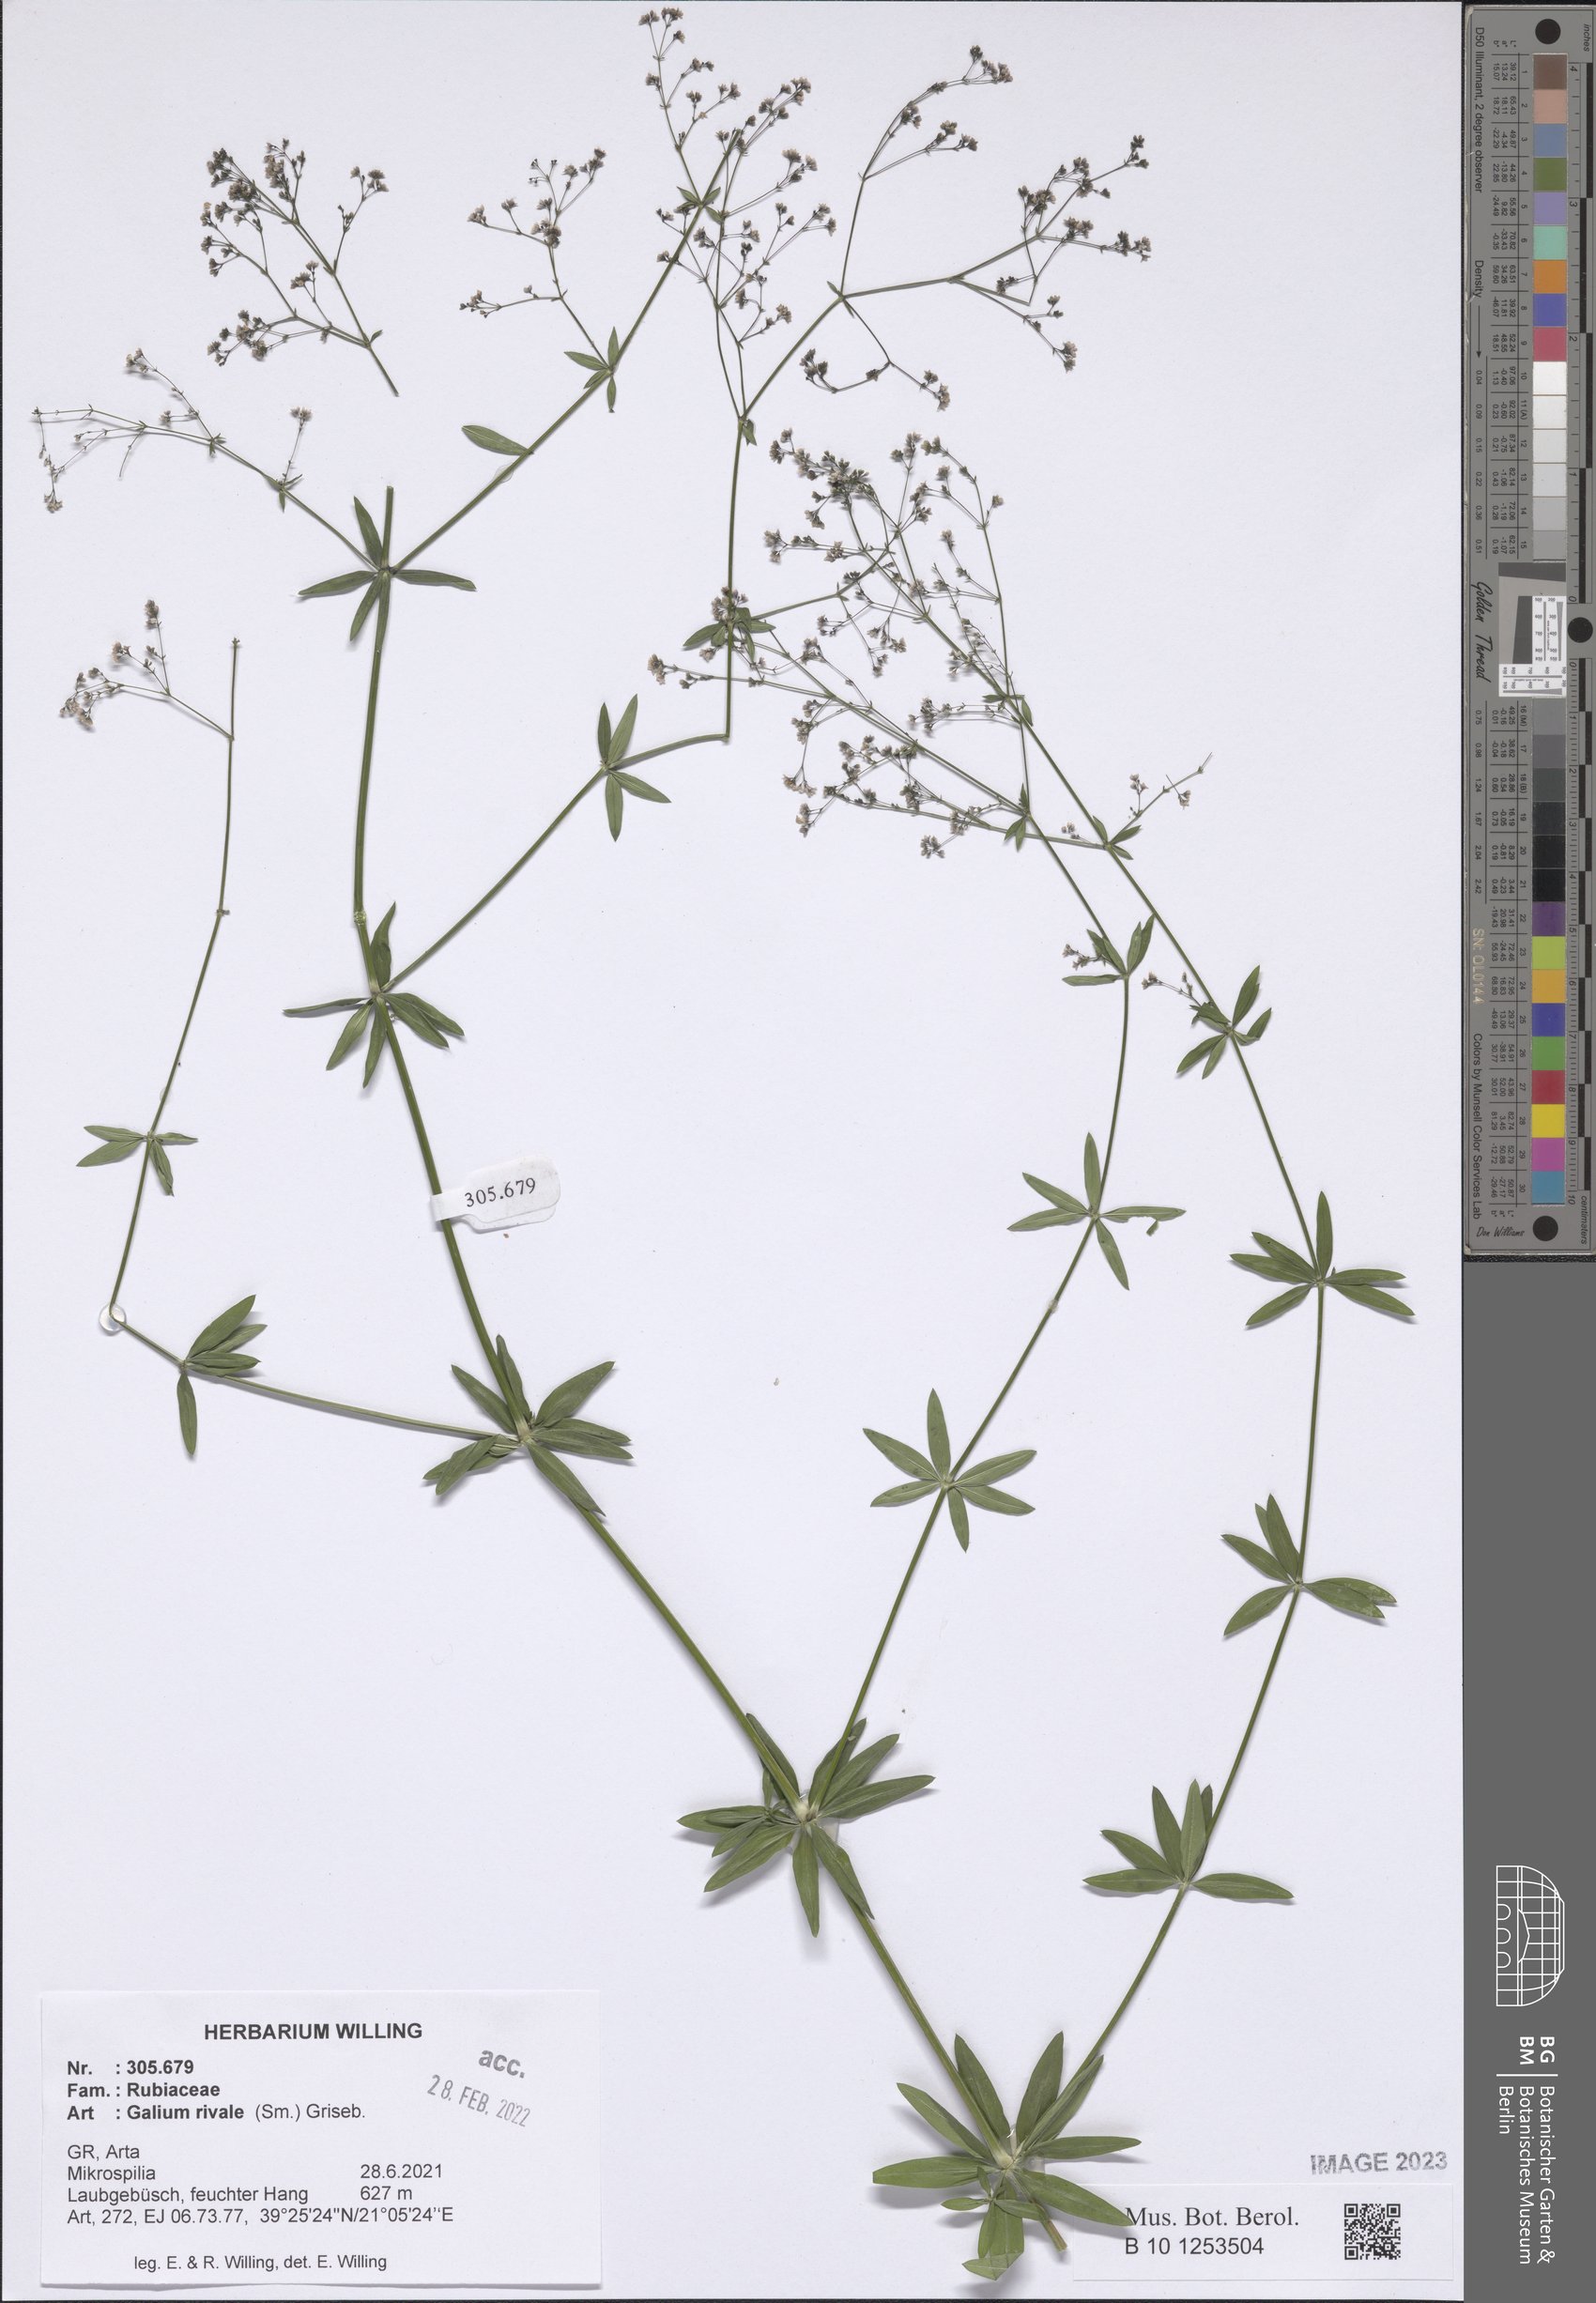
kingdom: Plantae
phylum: Tracheophyta
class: Magnoliopsida
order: Gentianales
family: Rubiaceae
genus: Galium
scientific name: Galium rivale
